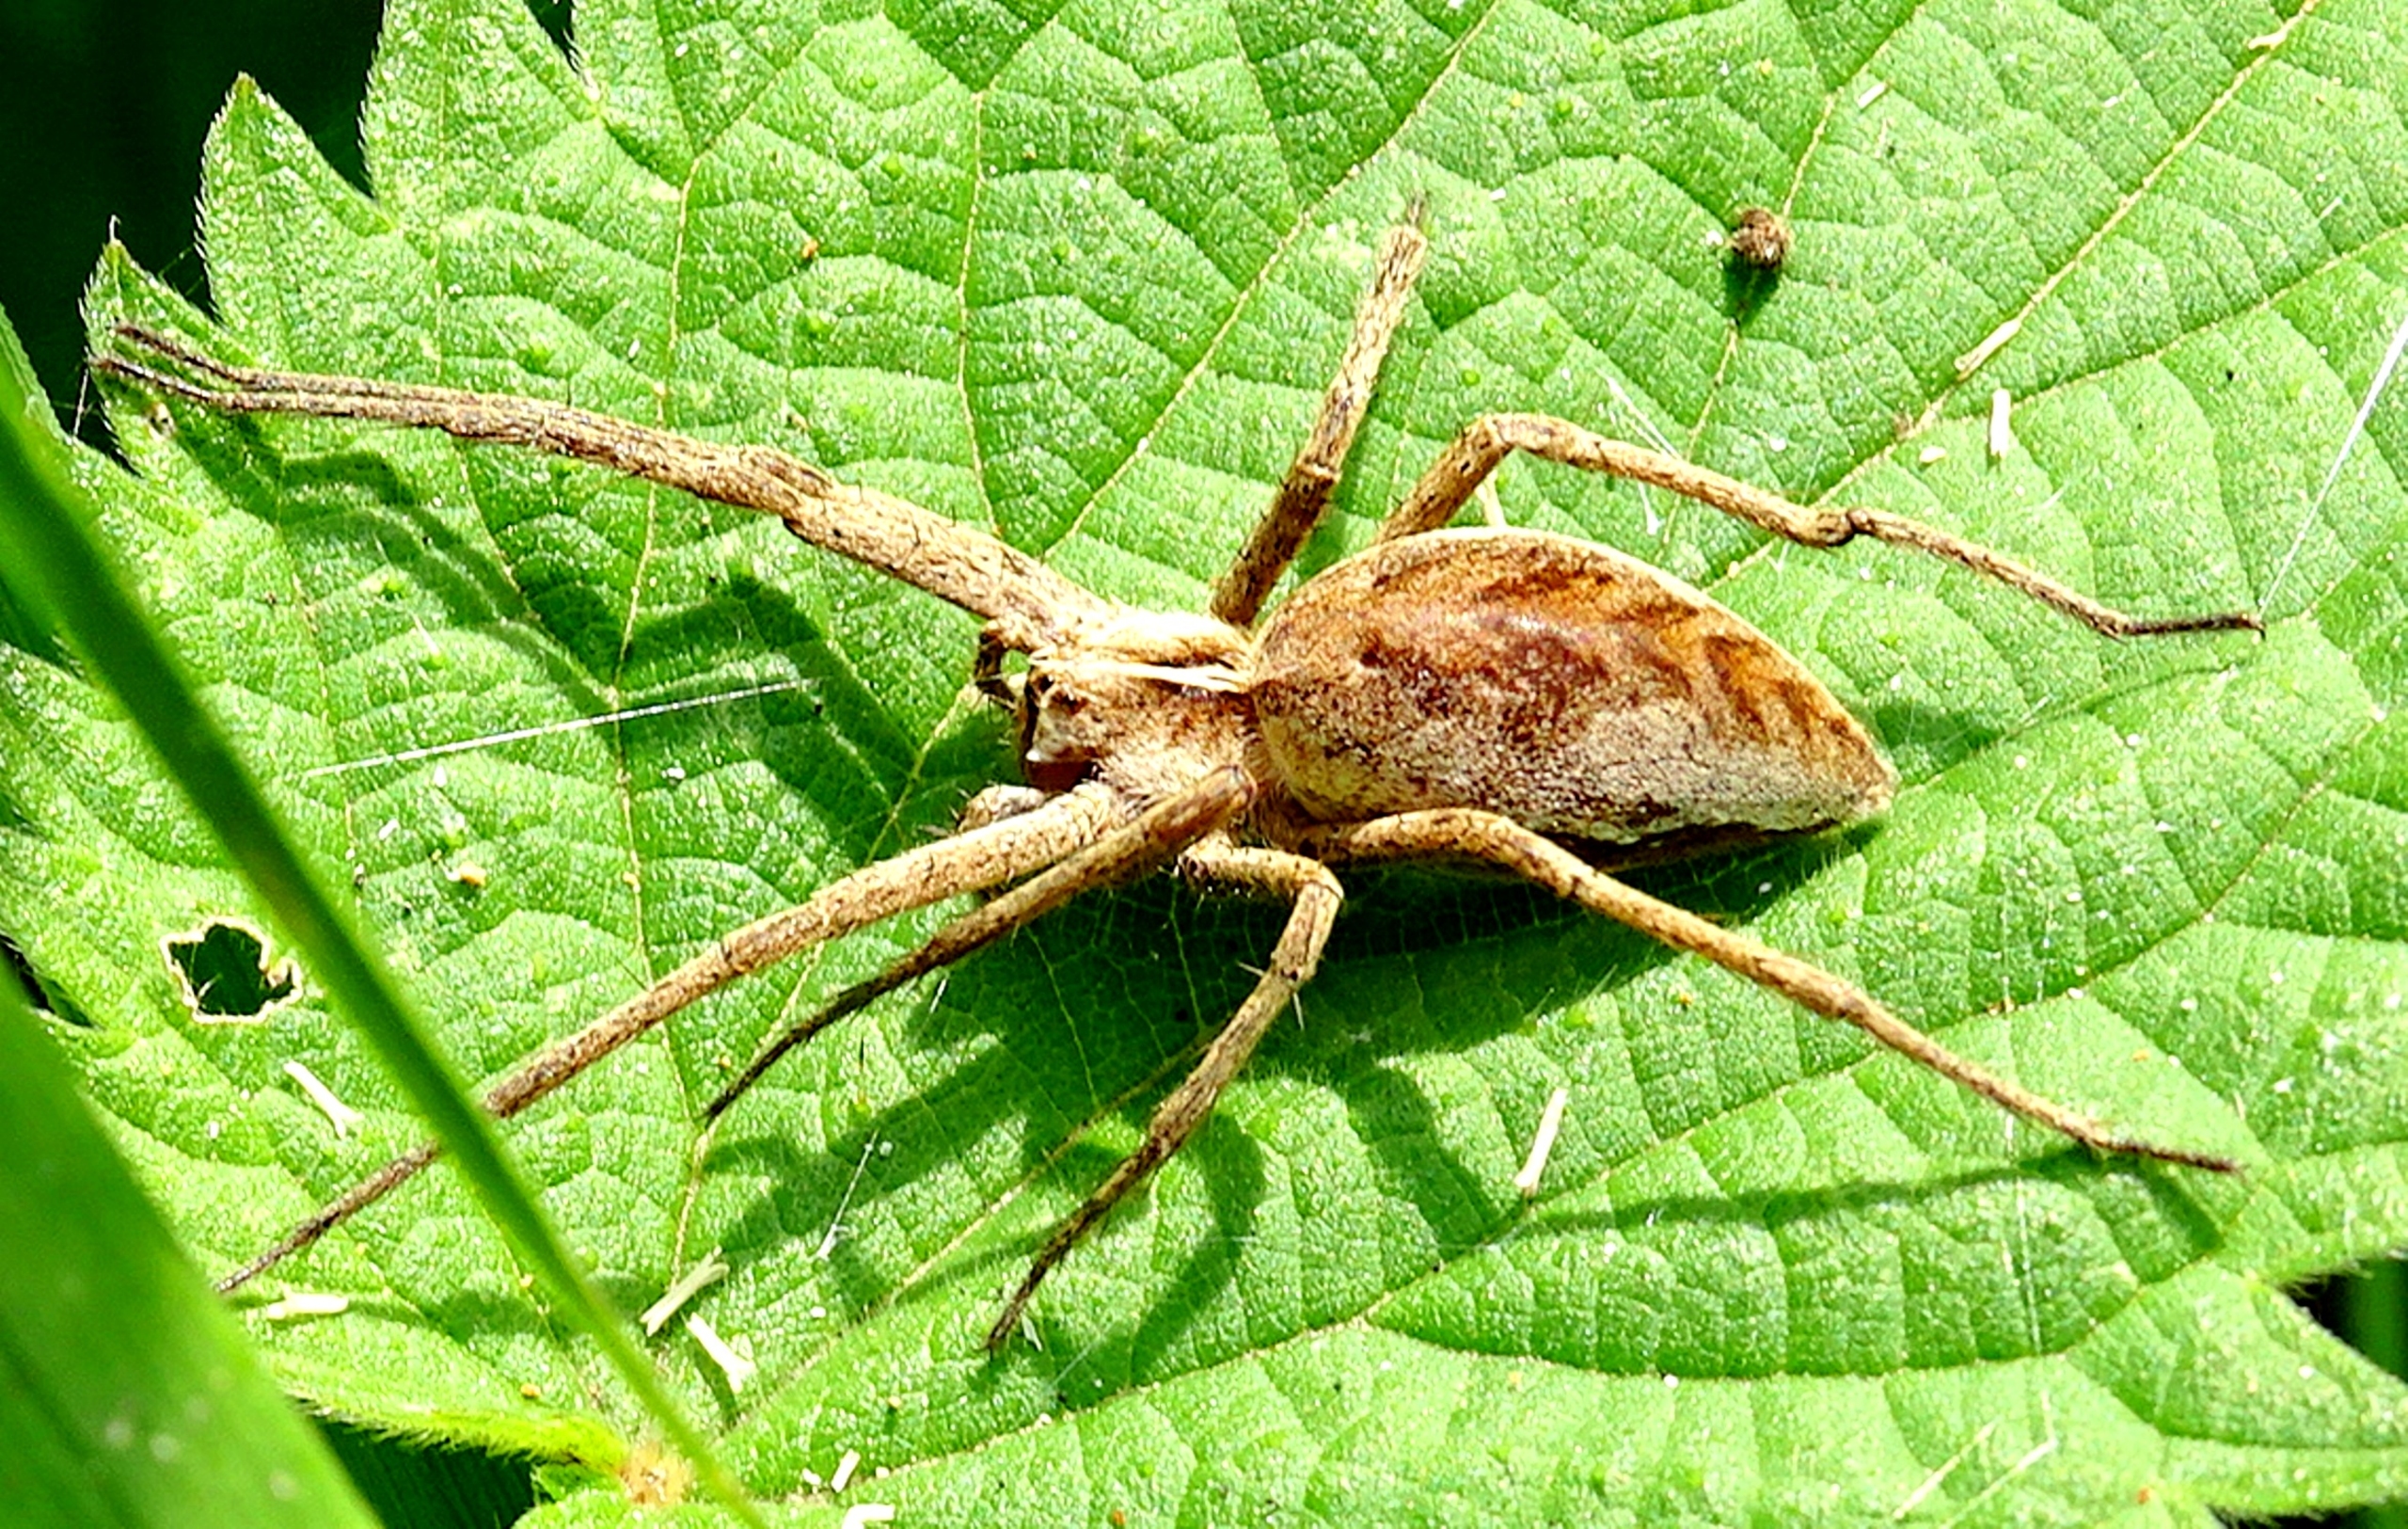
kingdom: Animalia
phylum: Arthropoda
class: Arachnida
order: Araneae
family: Pisauridae
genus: Pisaura
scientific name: Pisaura mirabilis
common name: Almindelig rovedderkop
